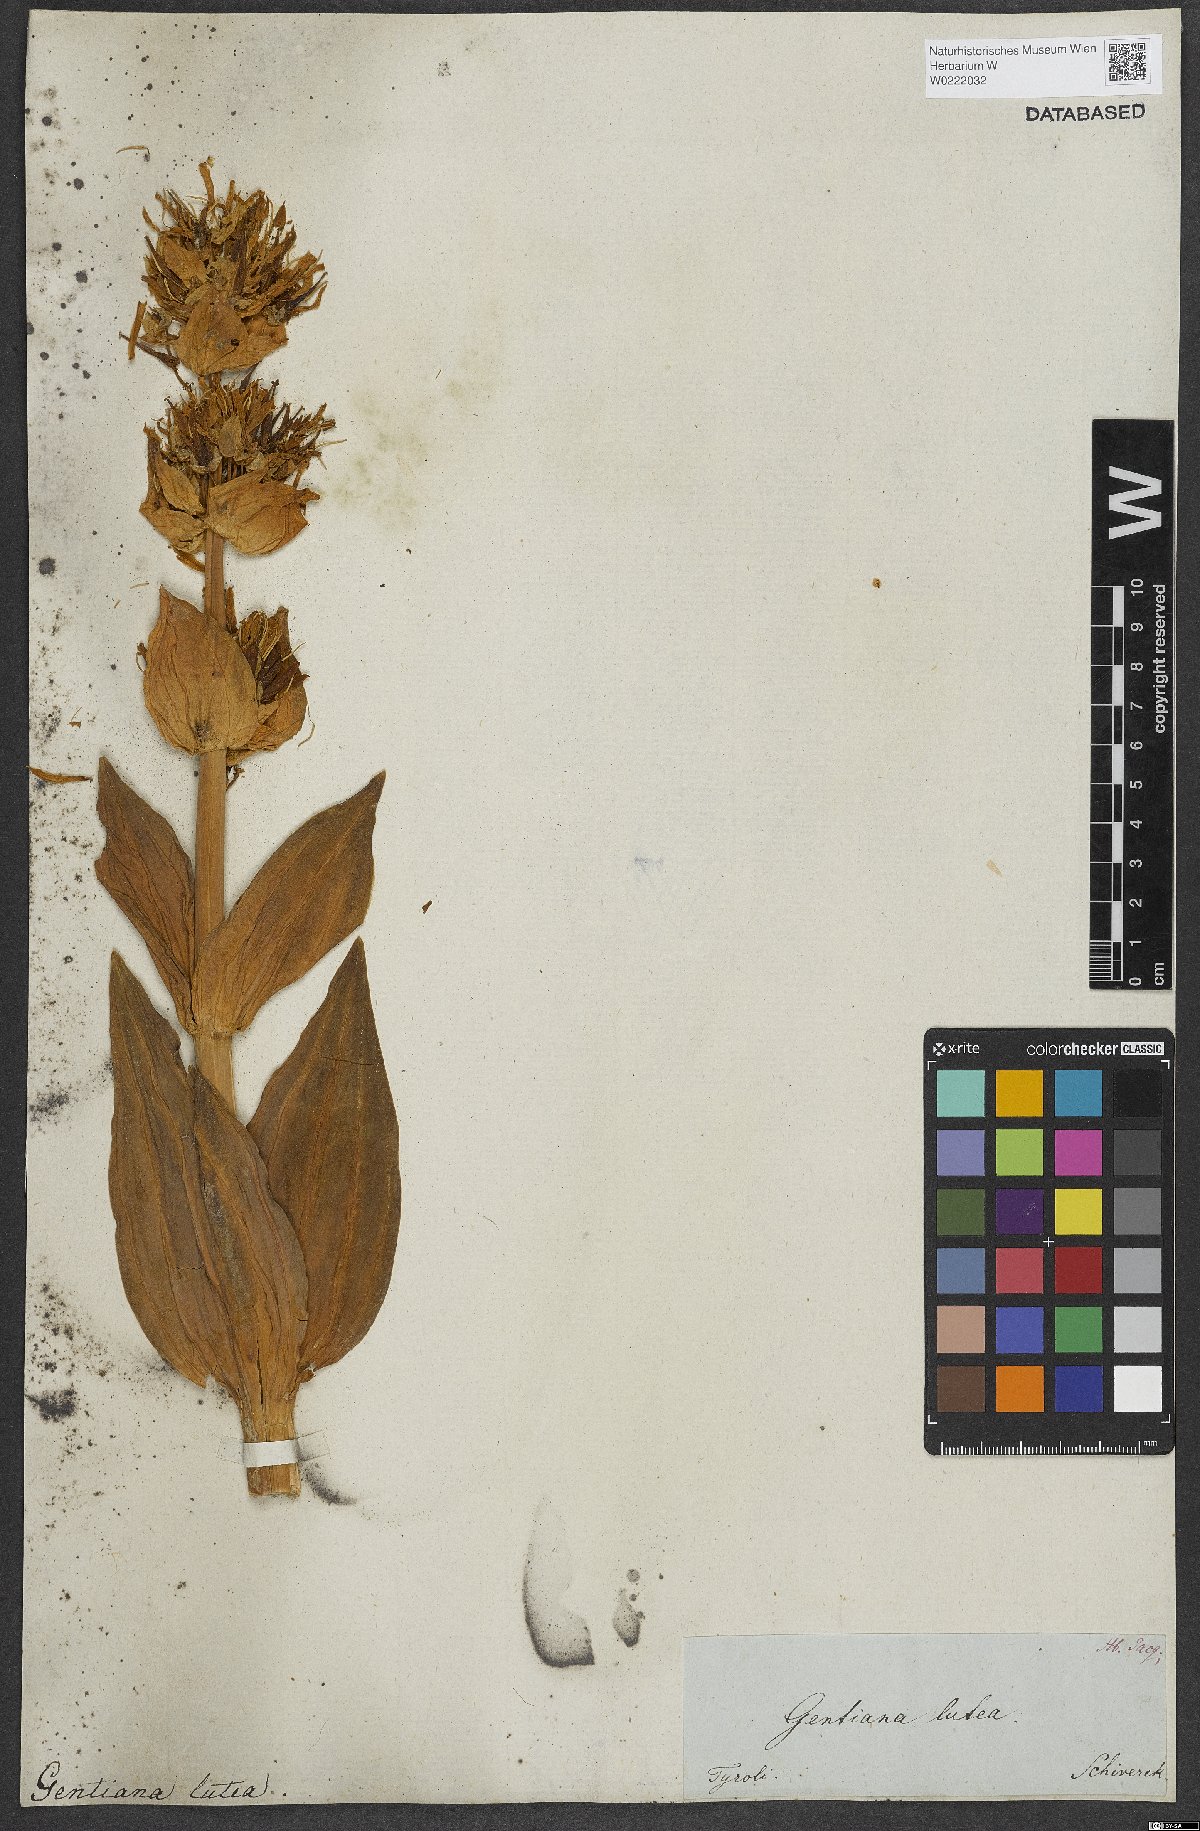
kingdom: Plantae
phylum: Tracheophyta
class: Magnoliopsida
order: Gentianales
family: Gentianaceae
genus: Gentiana
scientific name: Gentiana lutea
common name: Great yellow gentian
